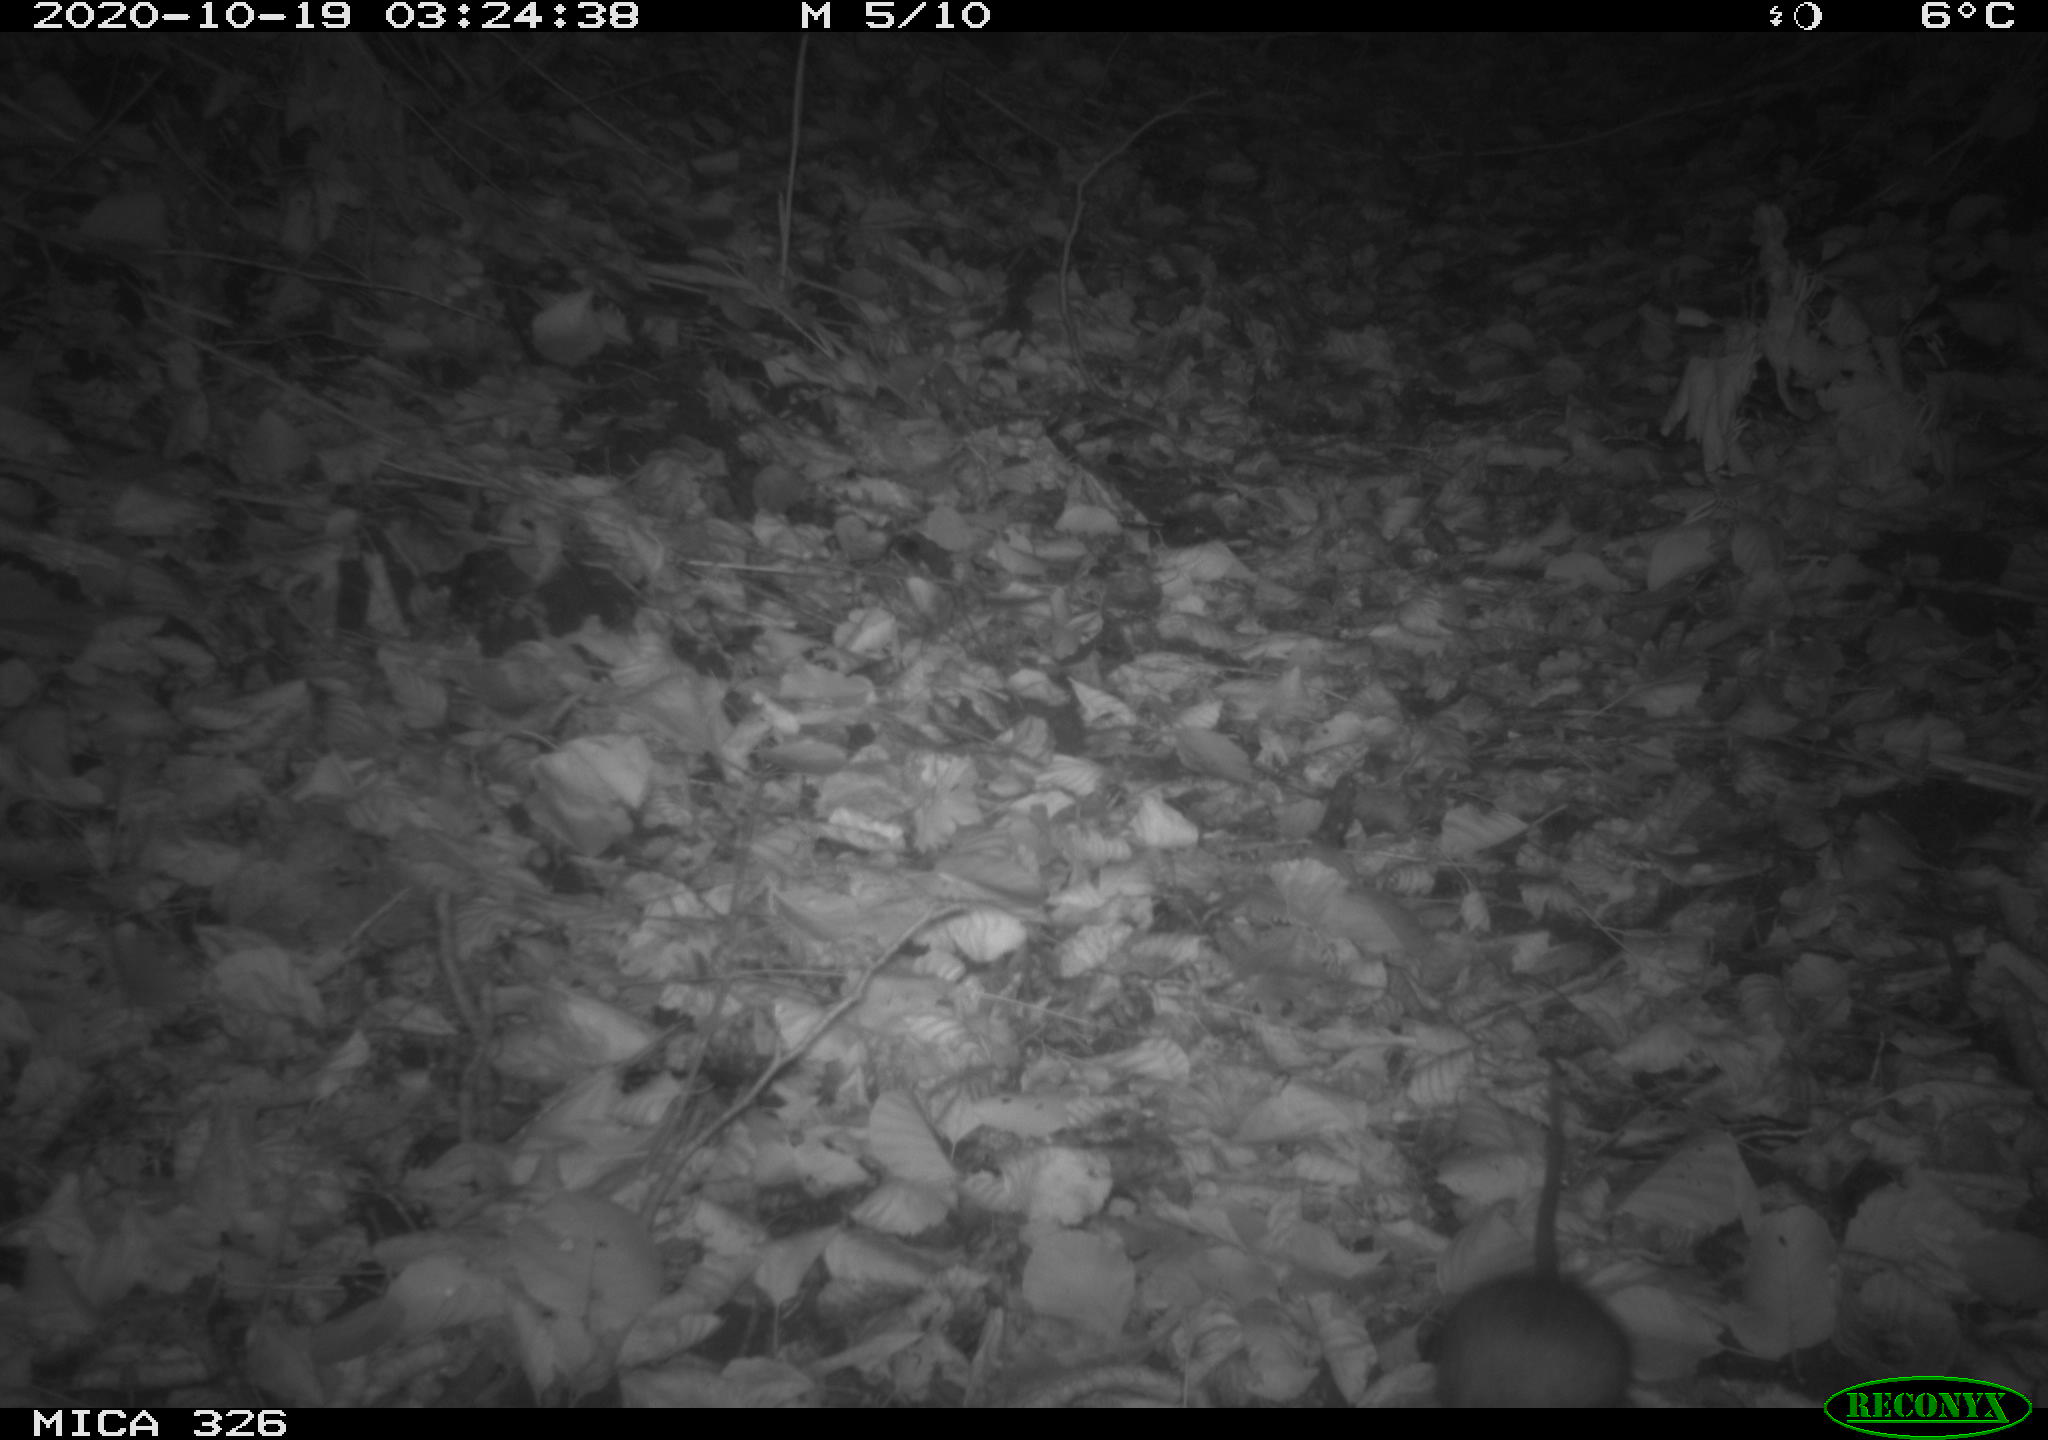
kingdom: Animalia
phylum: Chordata
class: Mammalia
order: Rodentia
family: Muridae
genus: Rattus
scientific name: Rattus norvegicus
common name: Brown rat
